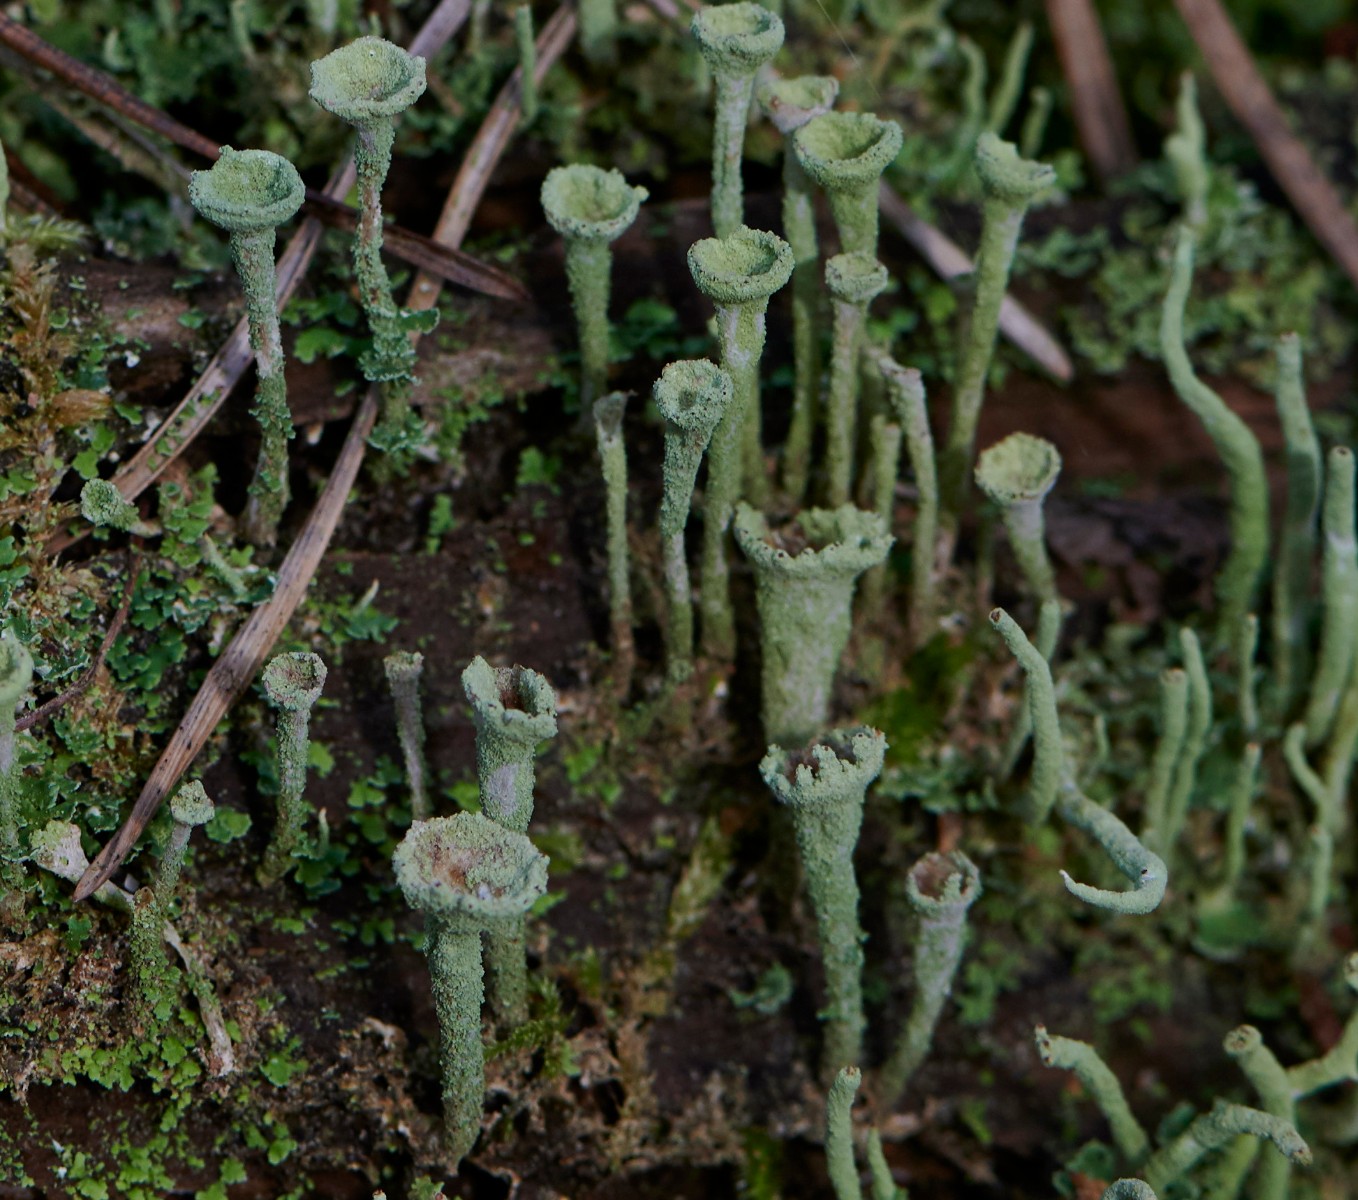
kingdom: Fungi
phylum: Ascomycota
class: Lecanoromycetes
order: Lecanorales
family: Cladoniaceae
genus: Cladonia
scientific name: Cladonia
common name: brungrøn bægerlav
